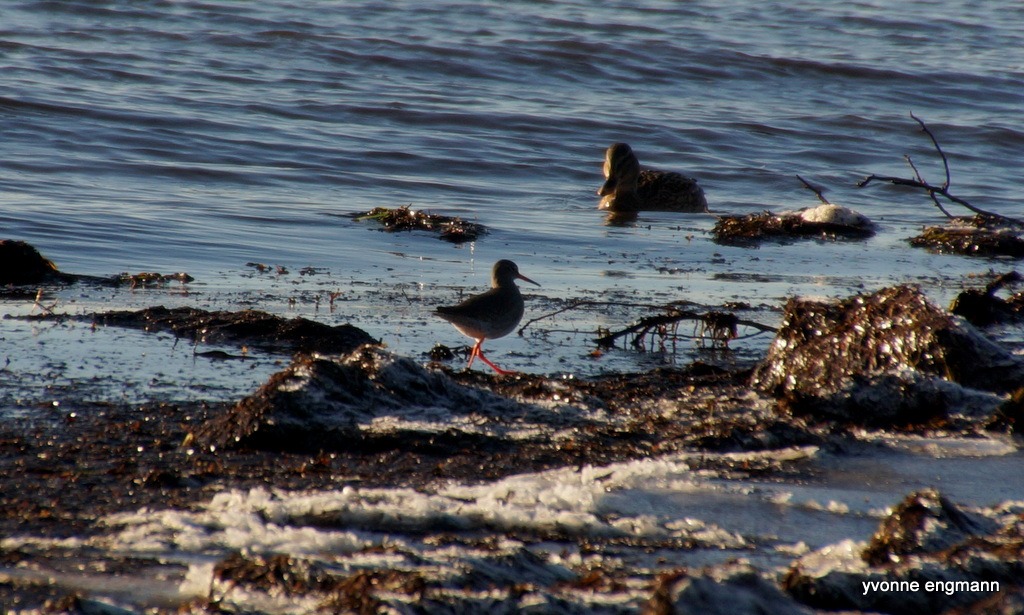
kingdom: Animalia
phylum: Chordata
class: Aves
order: Charadriiformes
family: Scolopacidae
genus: Tringa
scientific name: Tringa totanus
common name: Rødben
